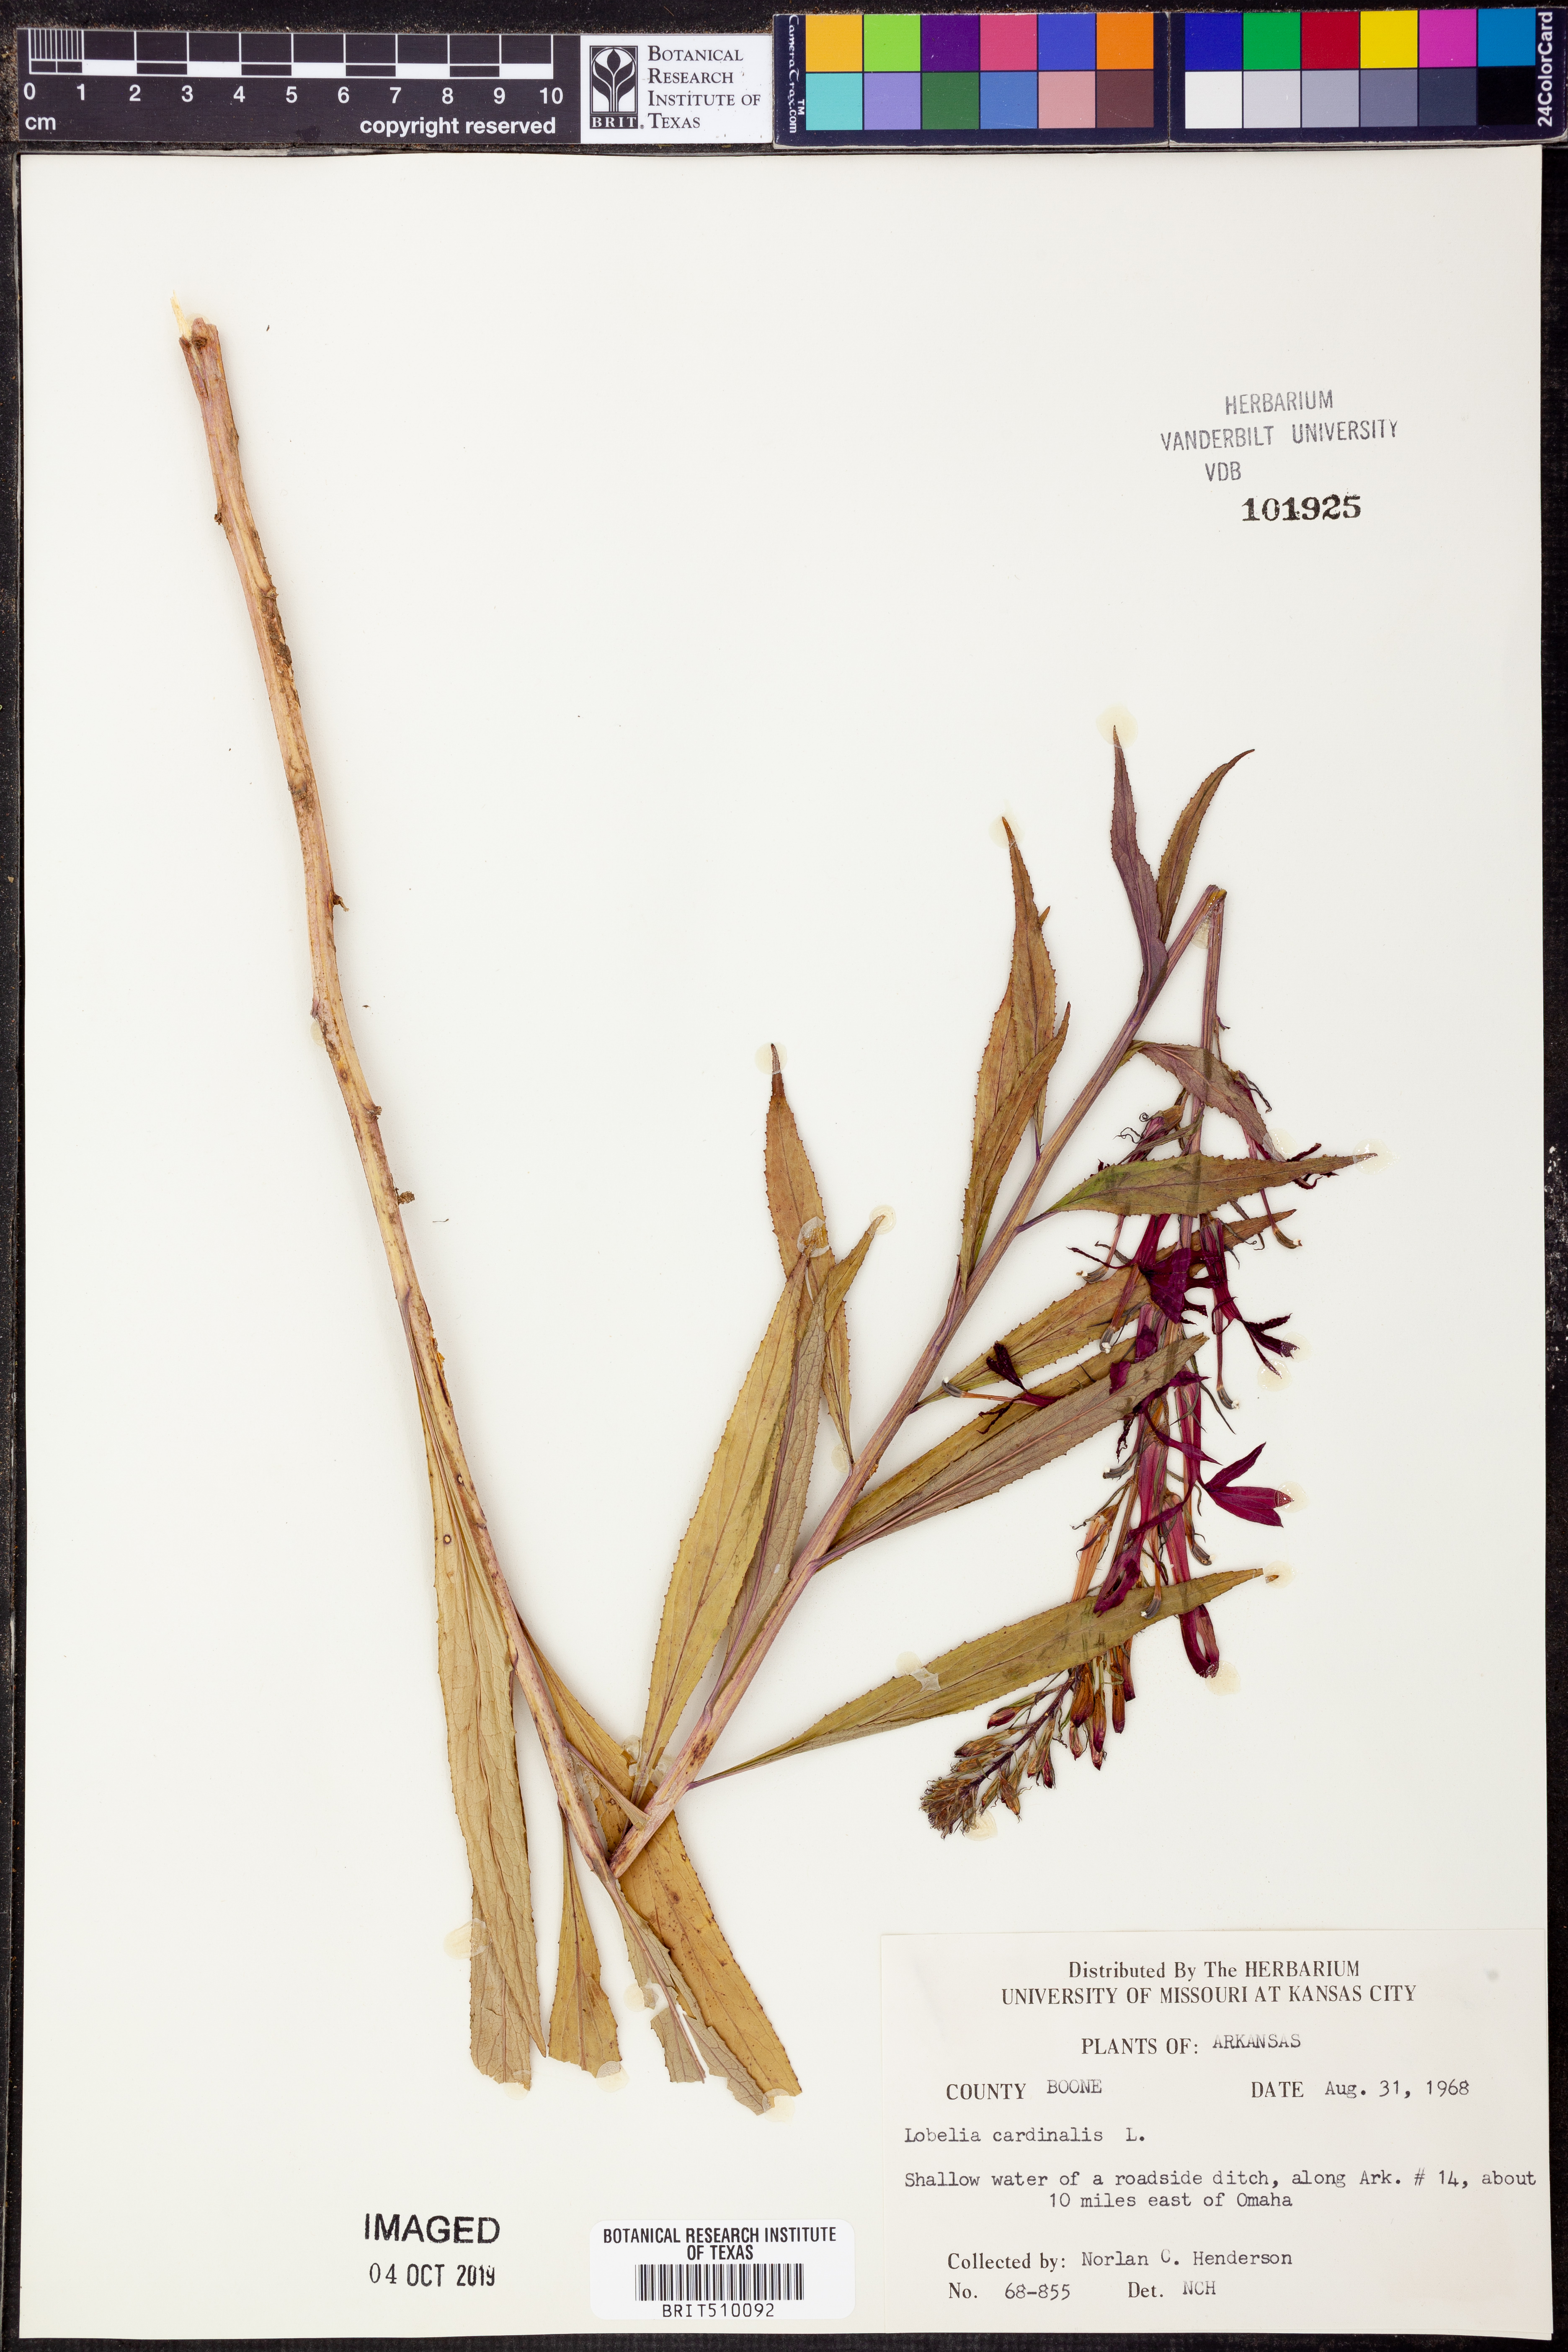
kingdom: Plantae
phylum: Tracheophyta
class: Magnoliopsida
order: Asterales
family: Campanulaceae
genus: Lobelia
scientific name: Lobelia cardinalis
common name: Cardinal flower
